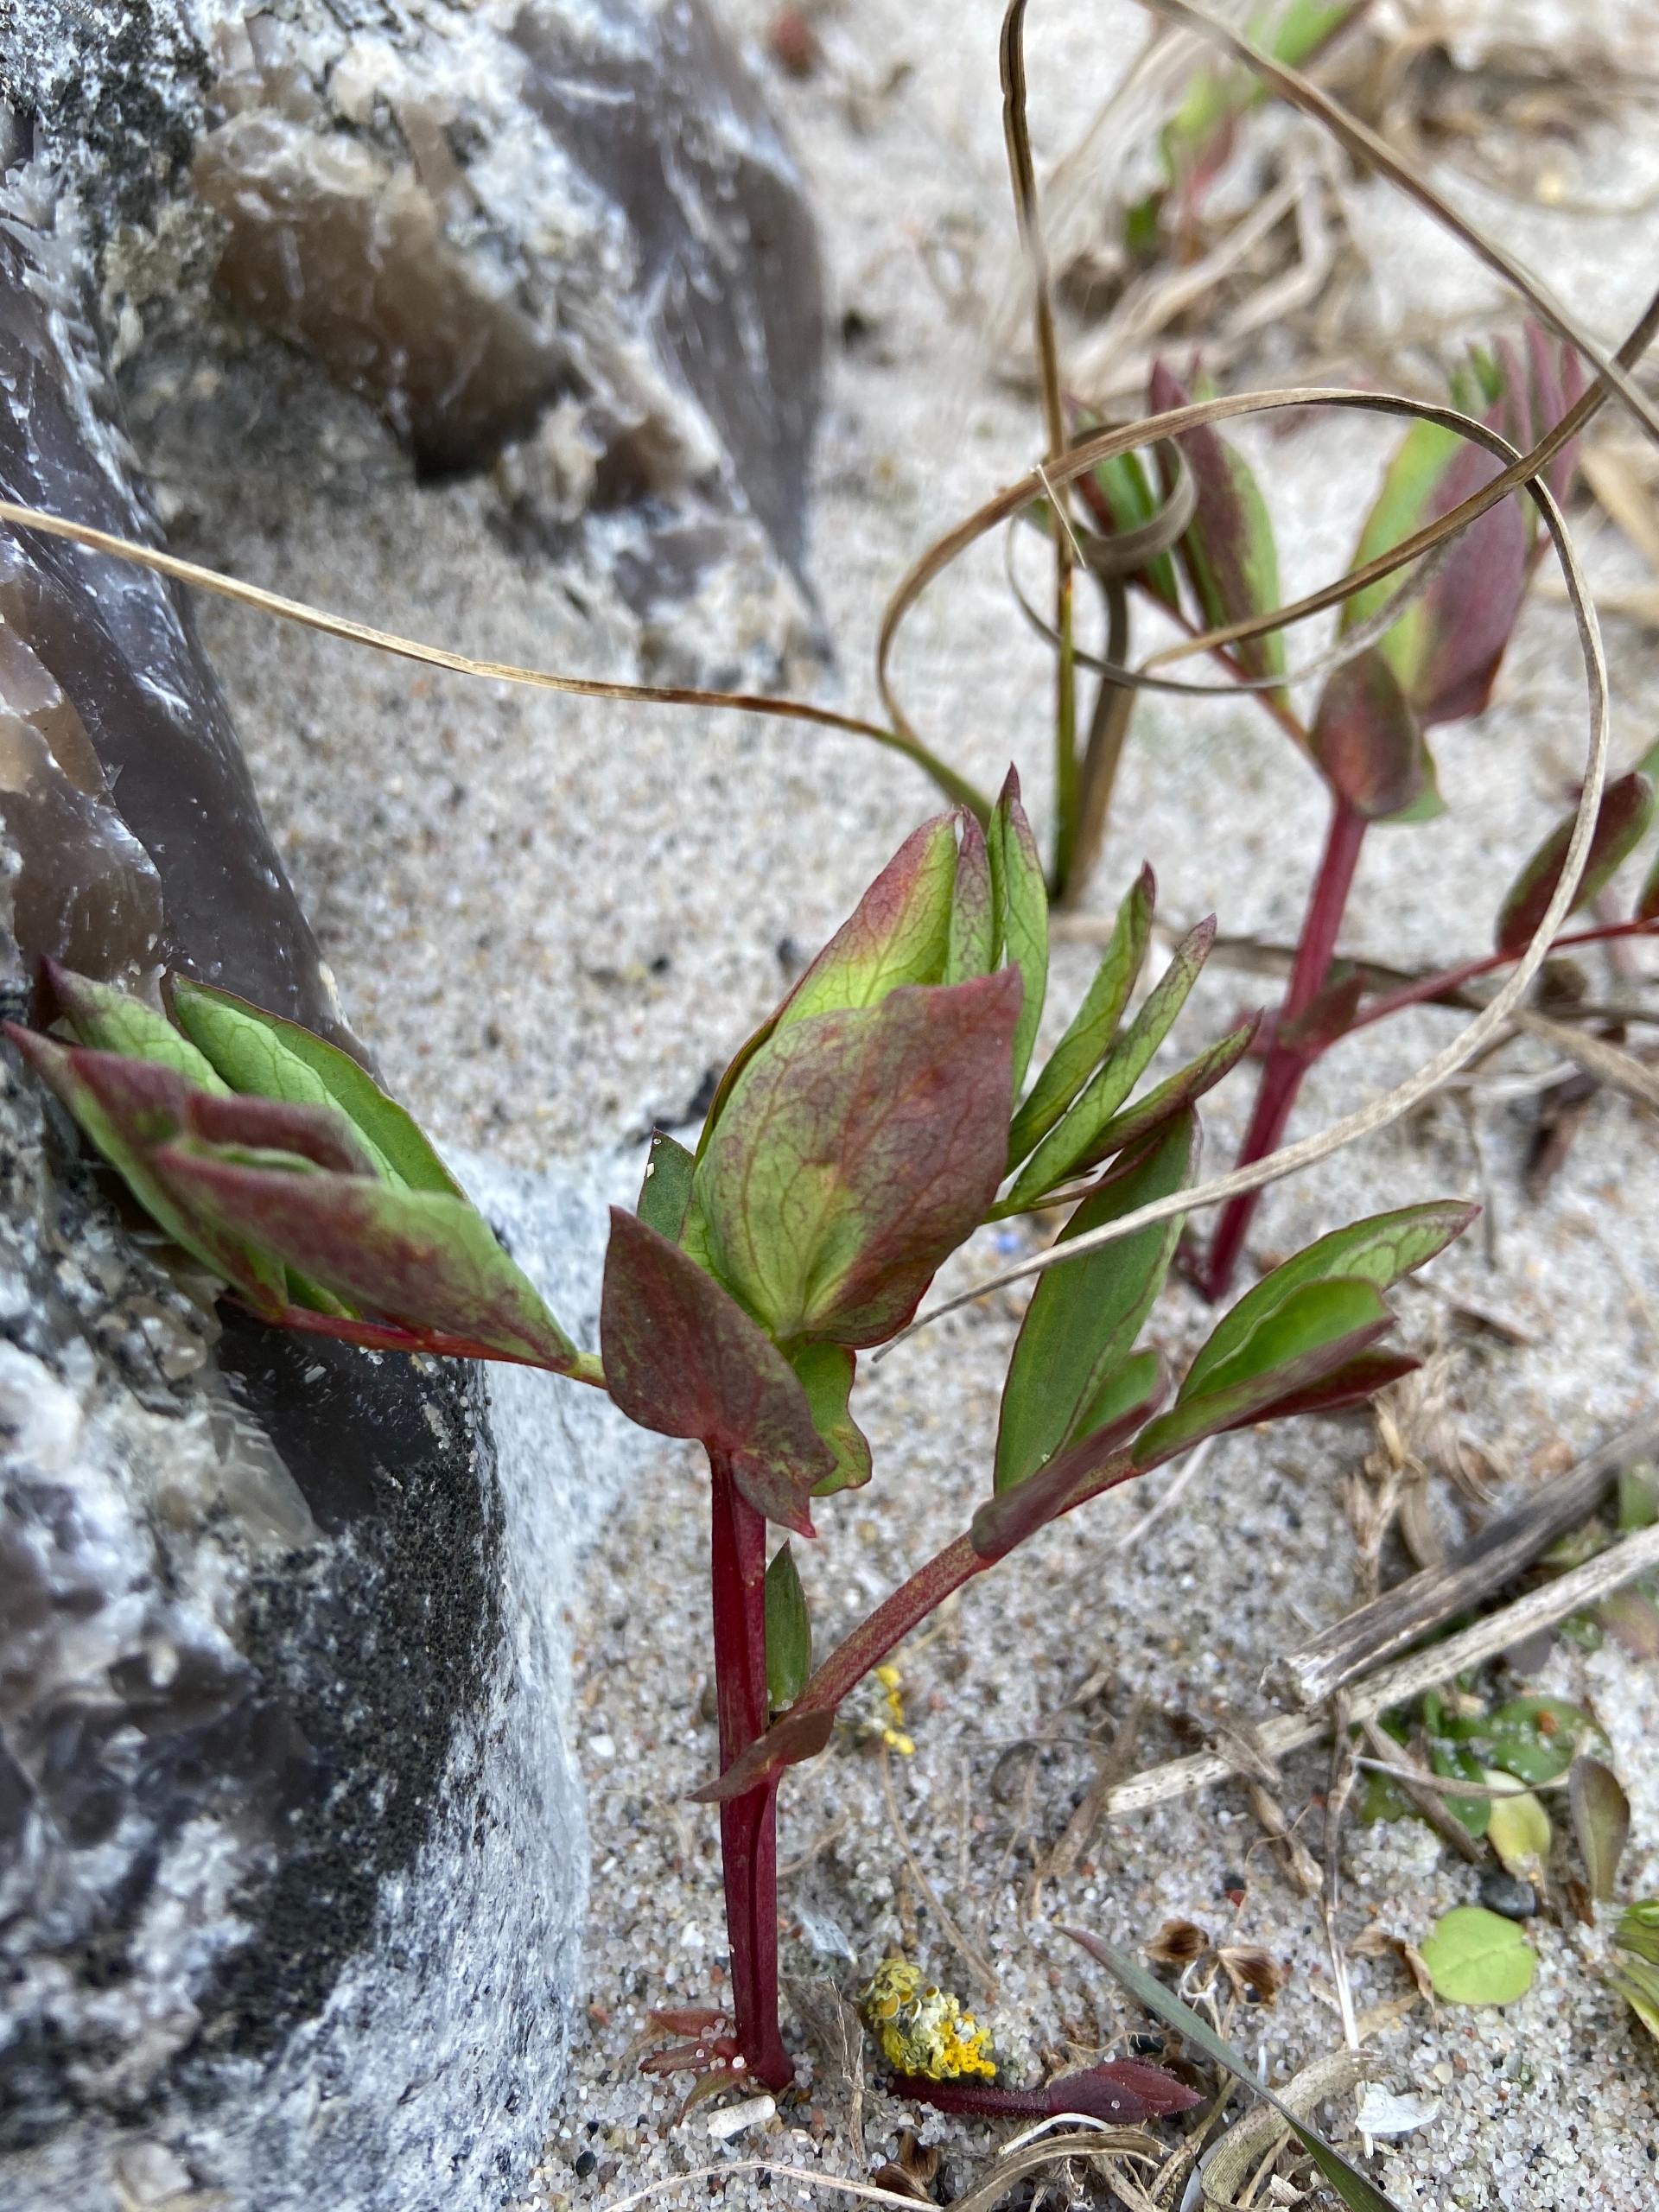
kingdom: Plantae
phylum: Tracheophyta
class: Magnoliopsida
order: Fabales
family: Fabaceae
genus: Lathyrus
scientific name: Lathyrus japonicus
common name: Strand-fladbælg
